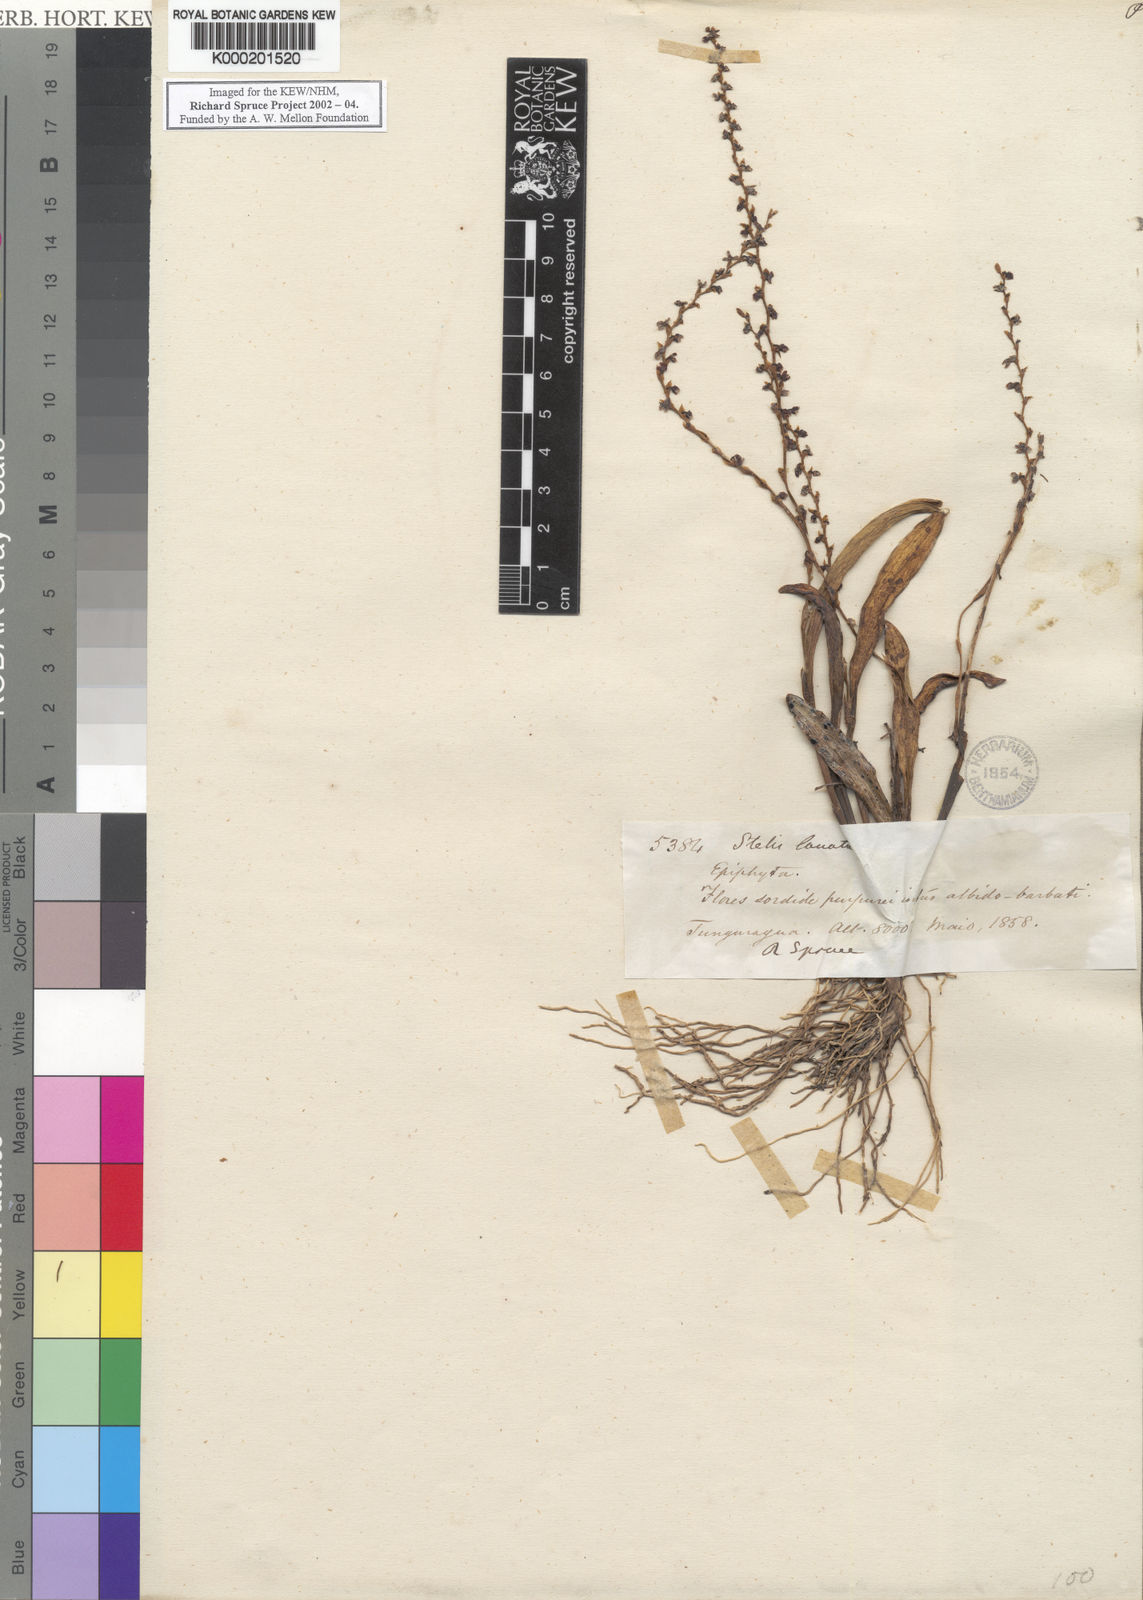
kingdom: Plantae
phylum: Tracheophyta
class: Liliopsida
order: Asparagales
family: Orchidaceae
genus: Stelis
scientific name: Stelis lanata
